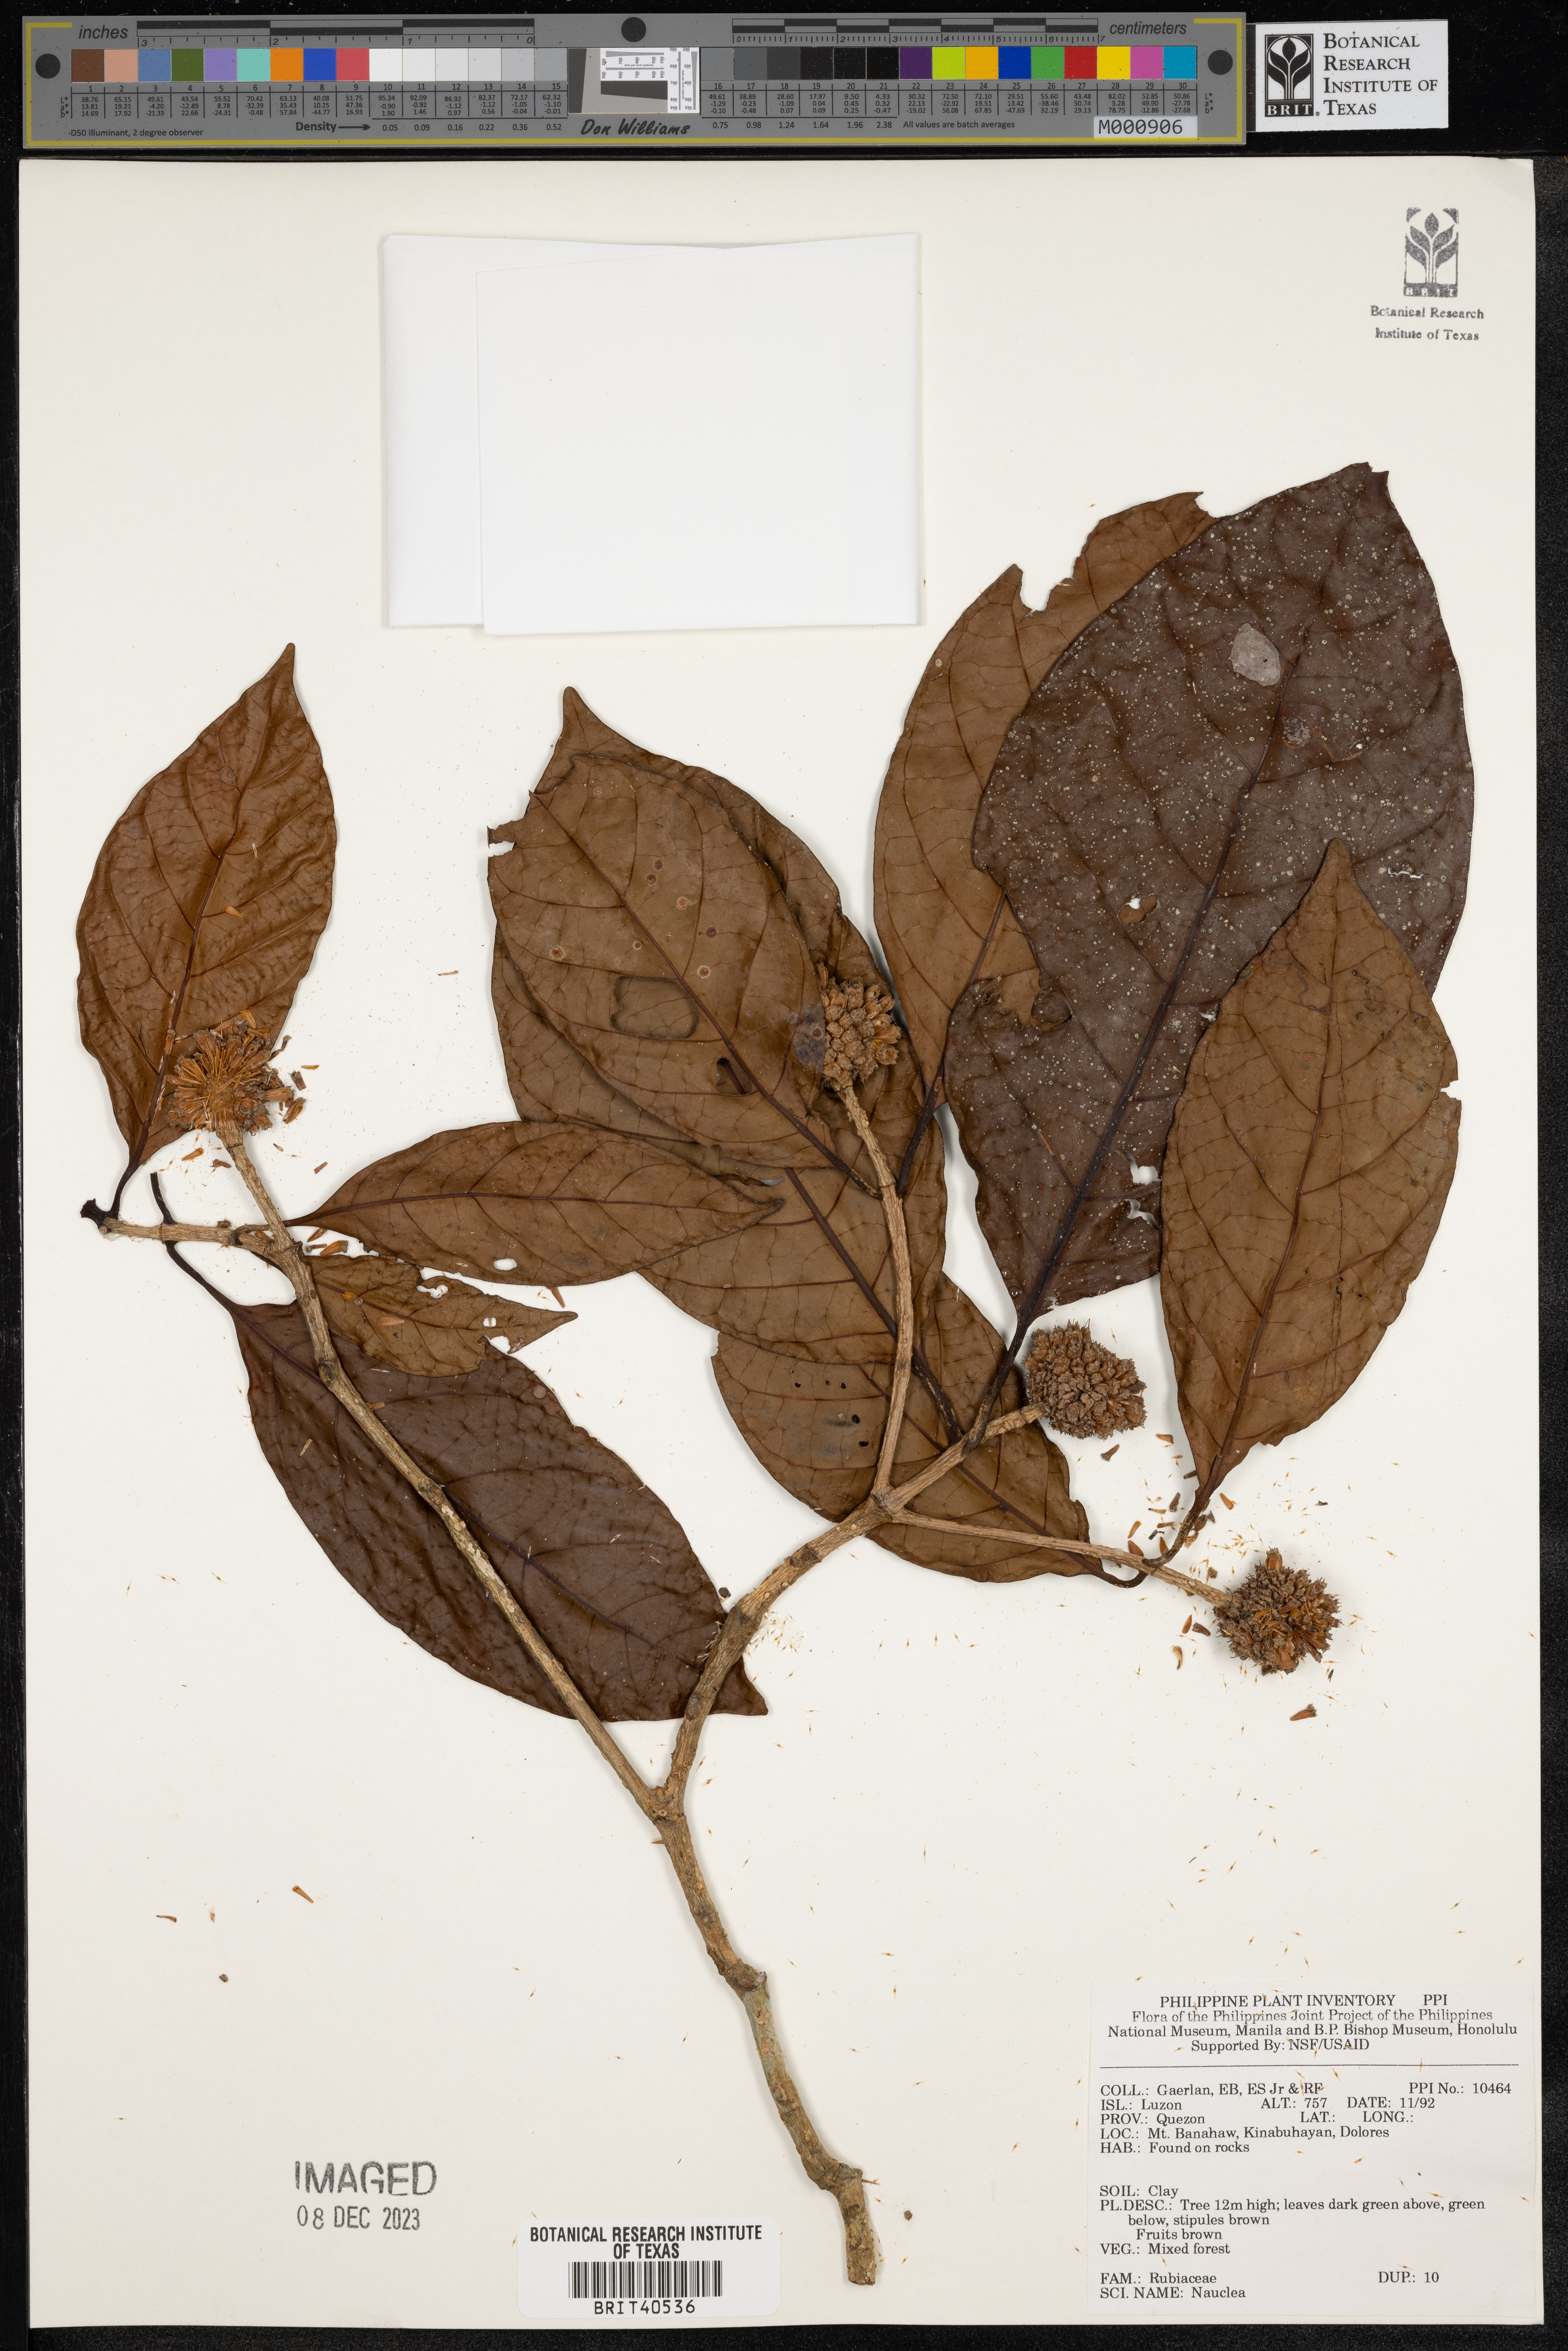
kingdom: Plantae
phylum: Tracheophyta
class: Magnoliopsida
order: Gentianales
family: Rubiaceae
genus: Nauclea
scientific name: Nauclea
